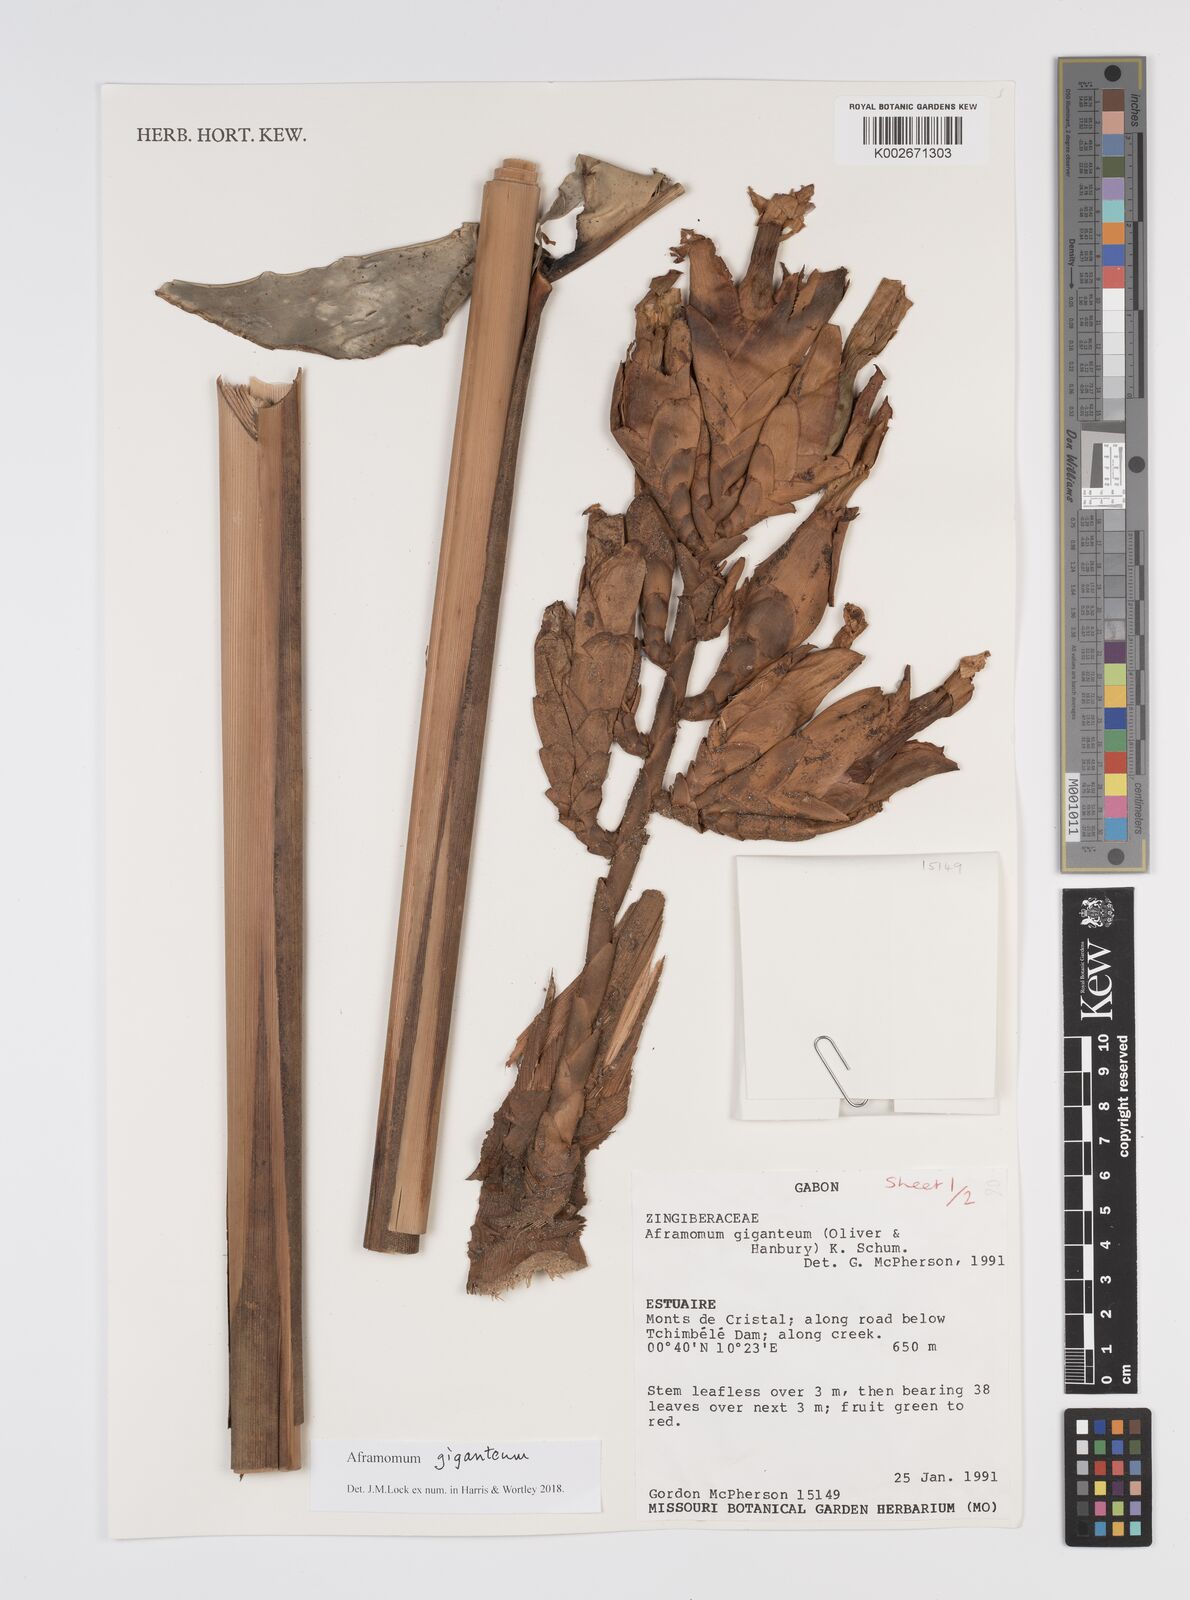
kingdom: Plantae
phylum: Tracheophyta
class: Liliopsida
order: Zingiberales
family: Zingiberaceae
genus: Aframomum
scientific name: Aframomum giganteum
